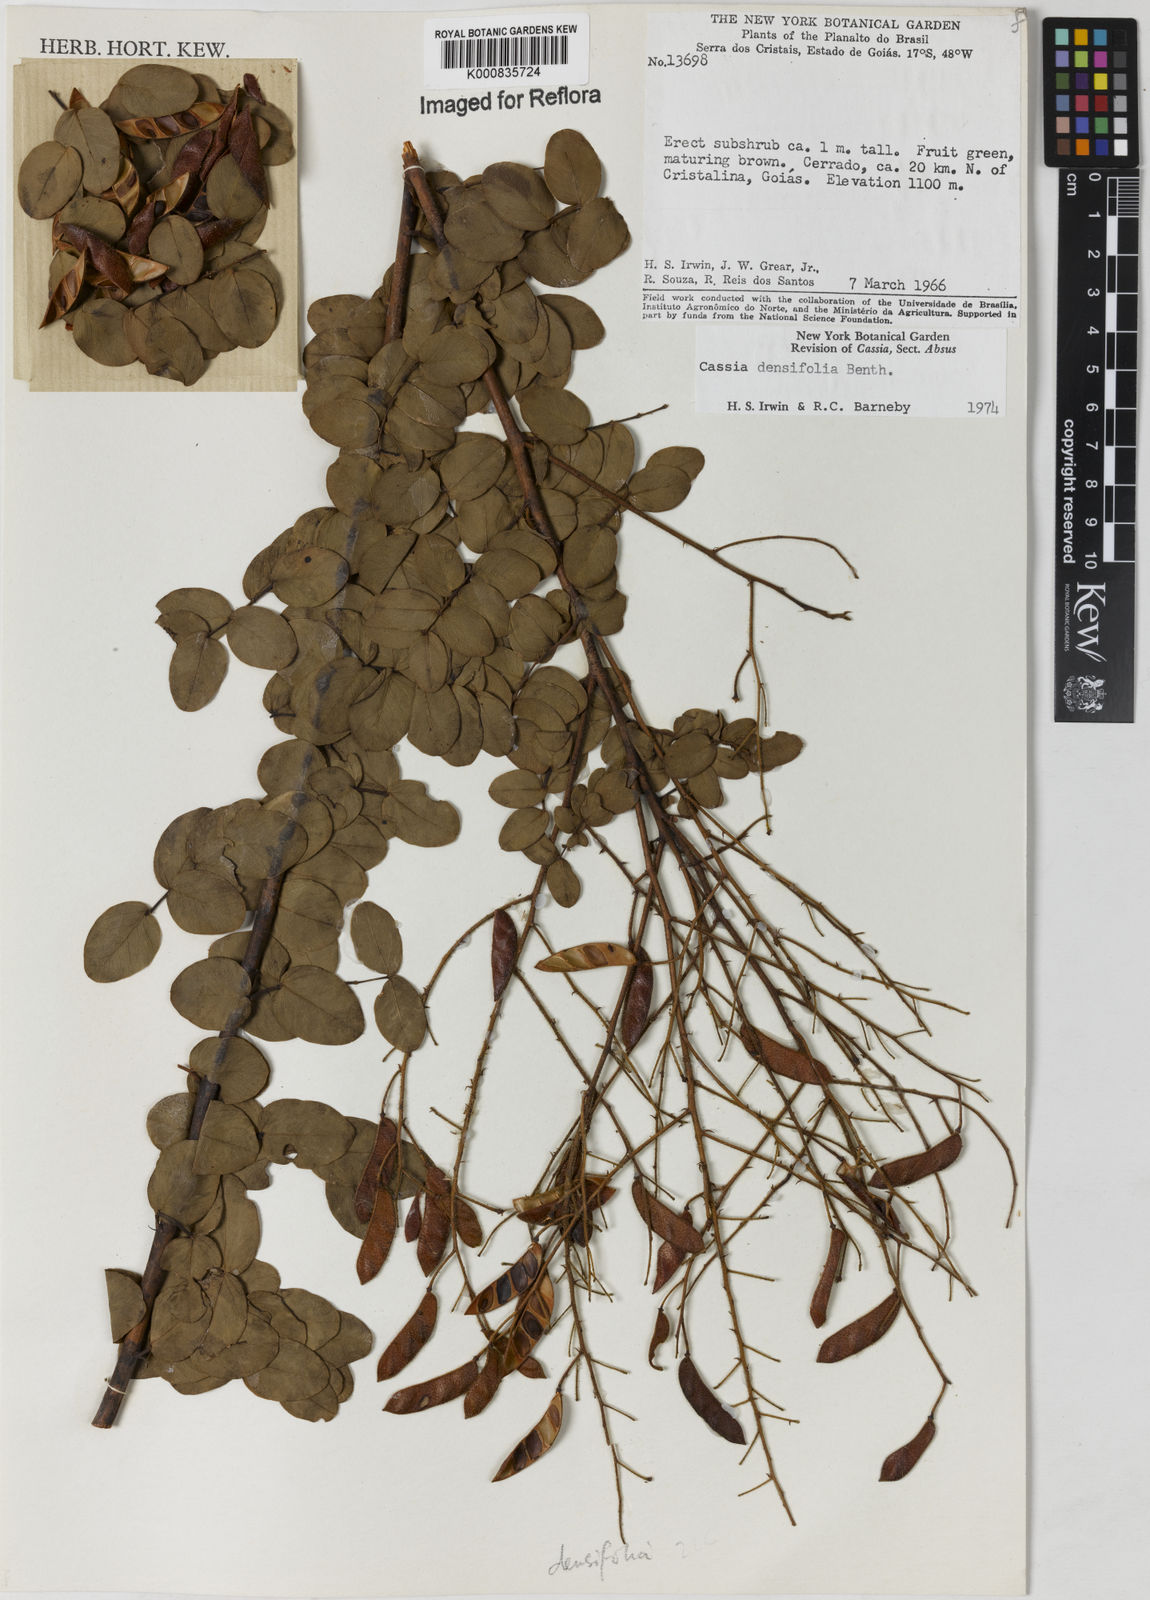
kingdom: Plantae
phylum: Tracheophyta
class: Magnoliopsida
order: Fabales
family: Fabaceae
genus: Chamaecrista
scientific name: Chamaecrista densifolia
